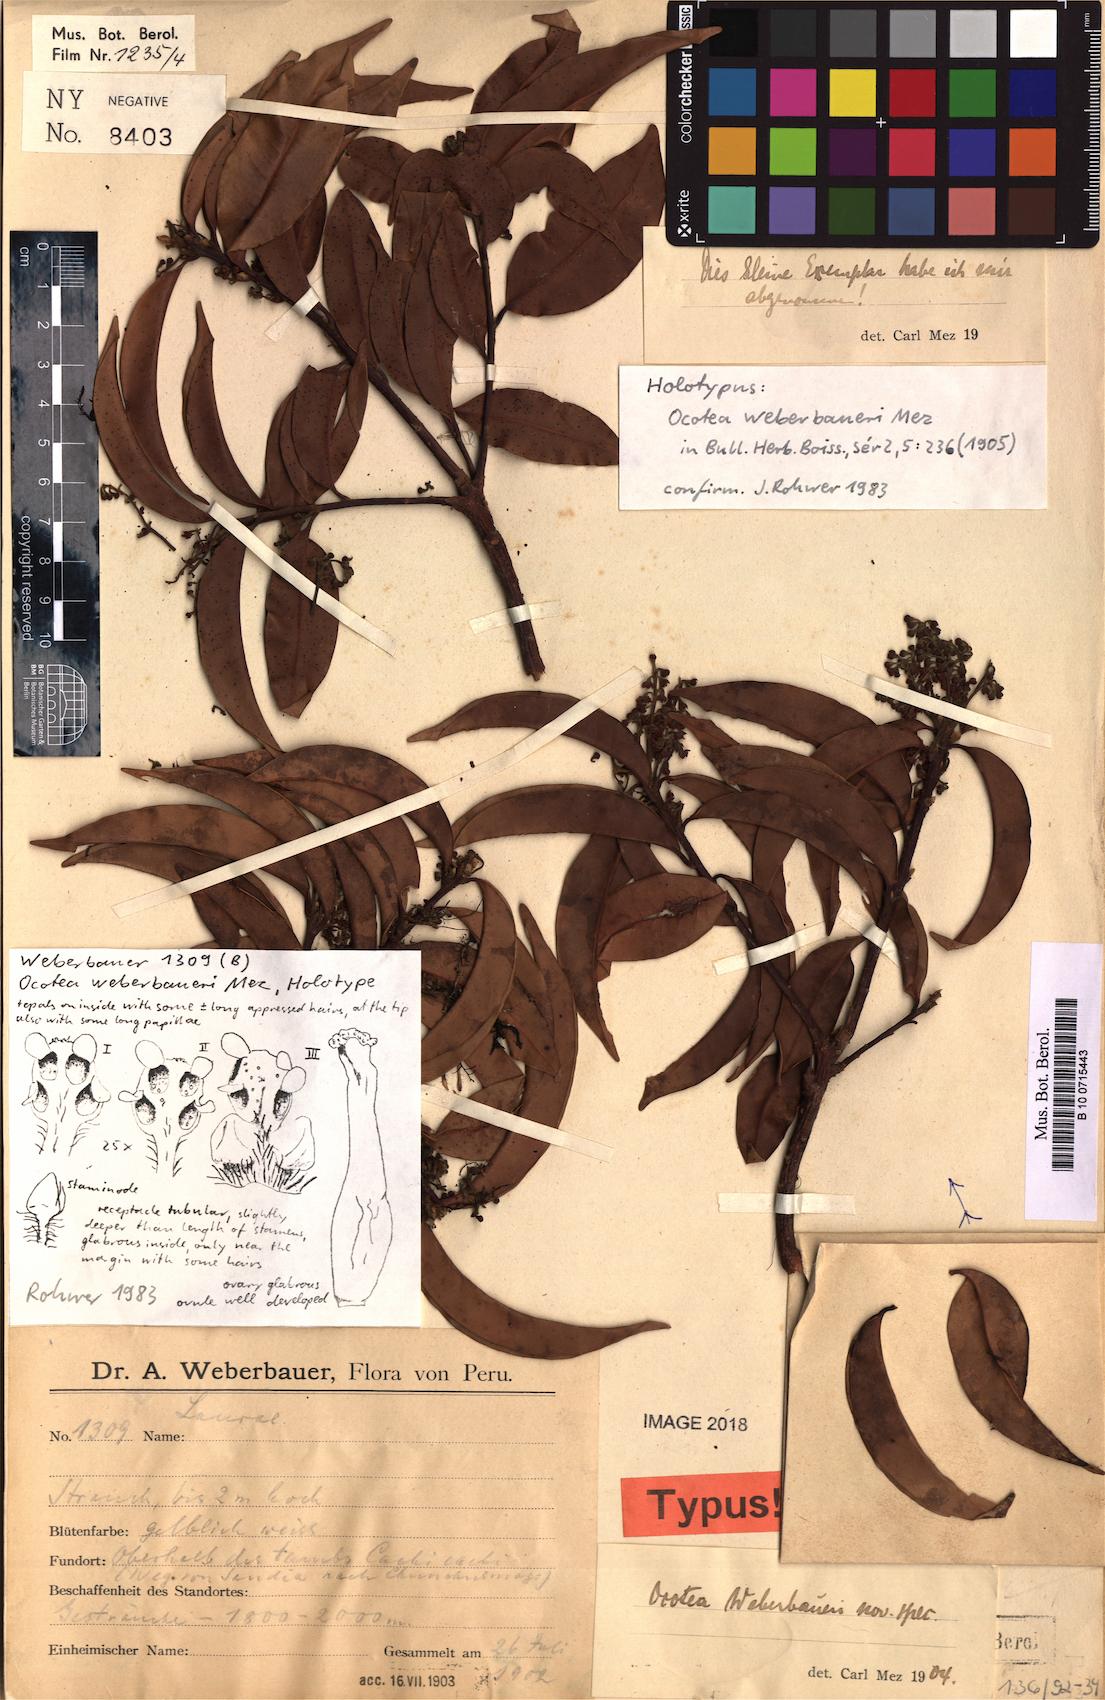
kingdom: Plantae
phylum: Tracheophyta
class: Magnoliopsida
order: Laurales
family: Lauraceae
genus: Ocotea
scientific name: Ocotea weberbaueri
